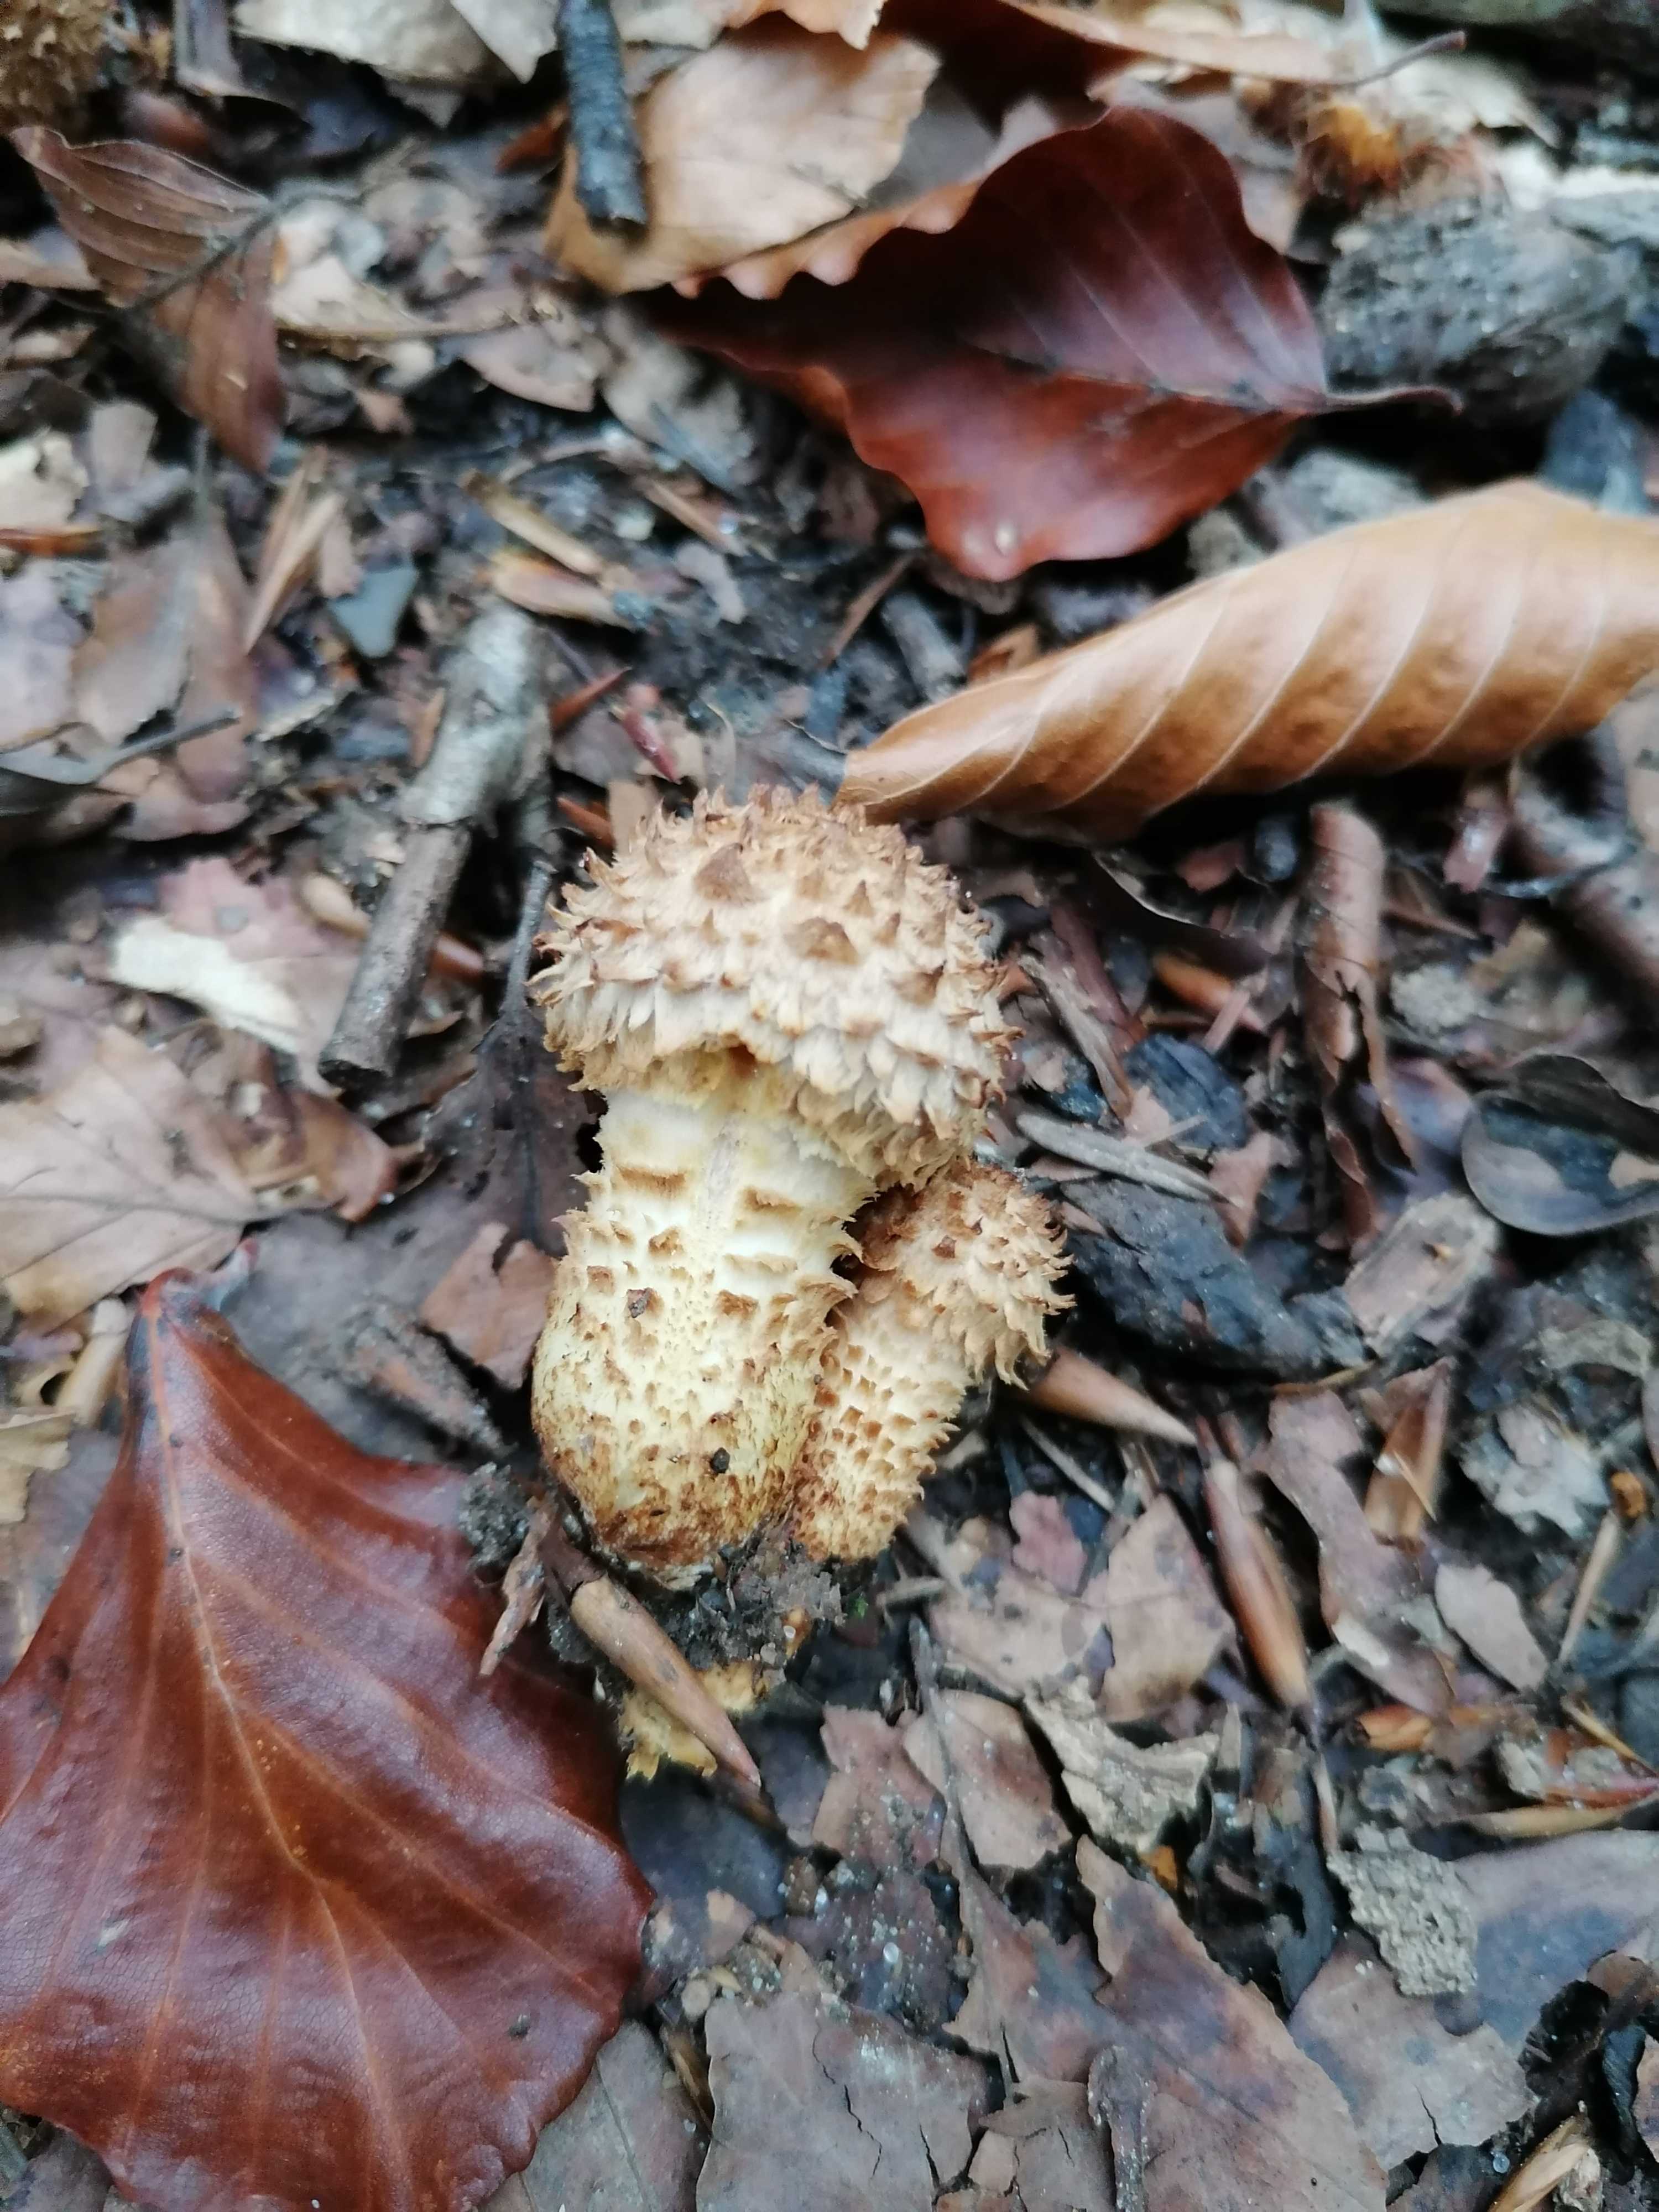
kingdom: Fungi
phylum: Basidiomycota
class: Agaricomycetes
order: Agaricales
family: Strophariaceae
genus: Pholiota
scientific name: Pholiota squarrosa
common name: krumskællet skælhat
